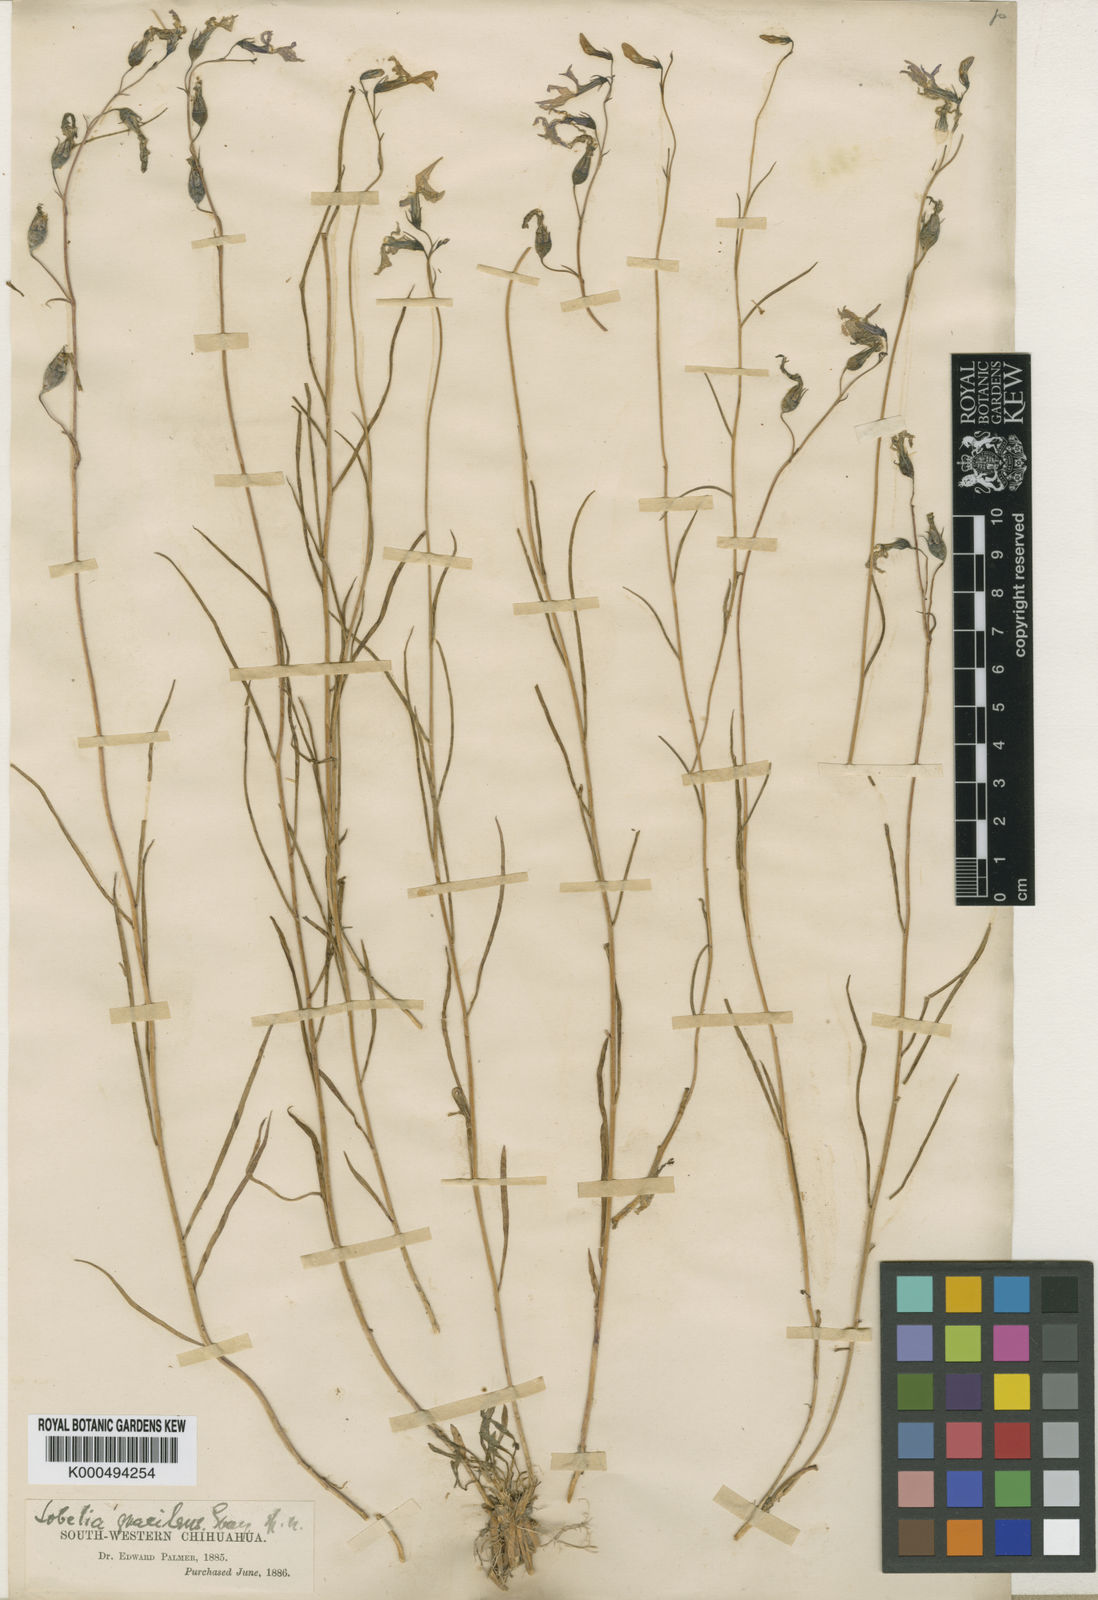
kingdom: Plantae
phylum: Tracheophyta
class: Magnoliopsida
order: Asterales
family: Campanulaceae
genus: Lobelia
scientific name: Lobelia ehrenbergii
